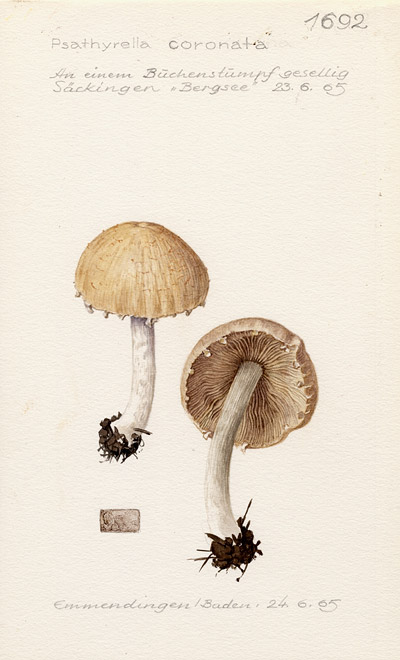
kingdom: Fungi
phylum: Basidiomycota
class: Agaricomycetes
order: Agaricales
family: Psathyrellaceae
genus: Psathyrella
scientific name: Psathyrella coronata
